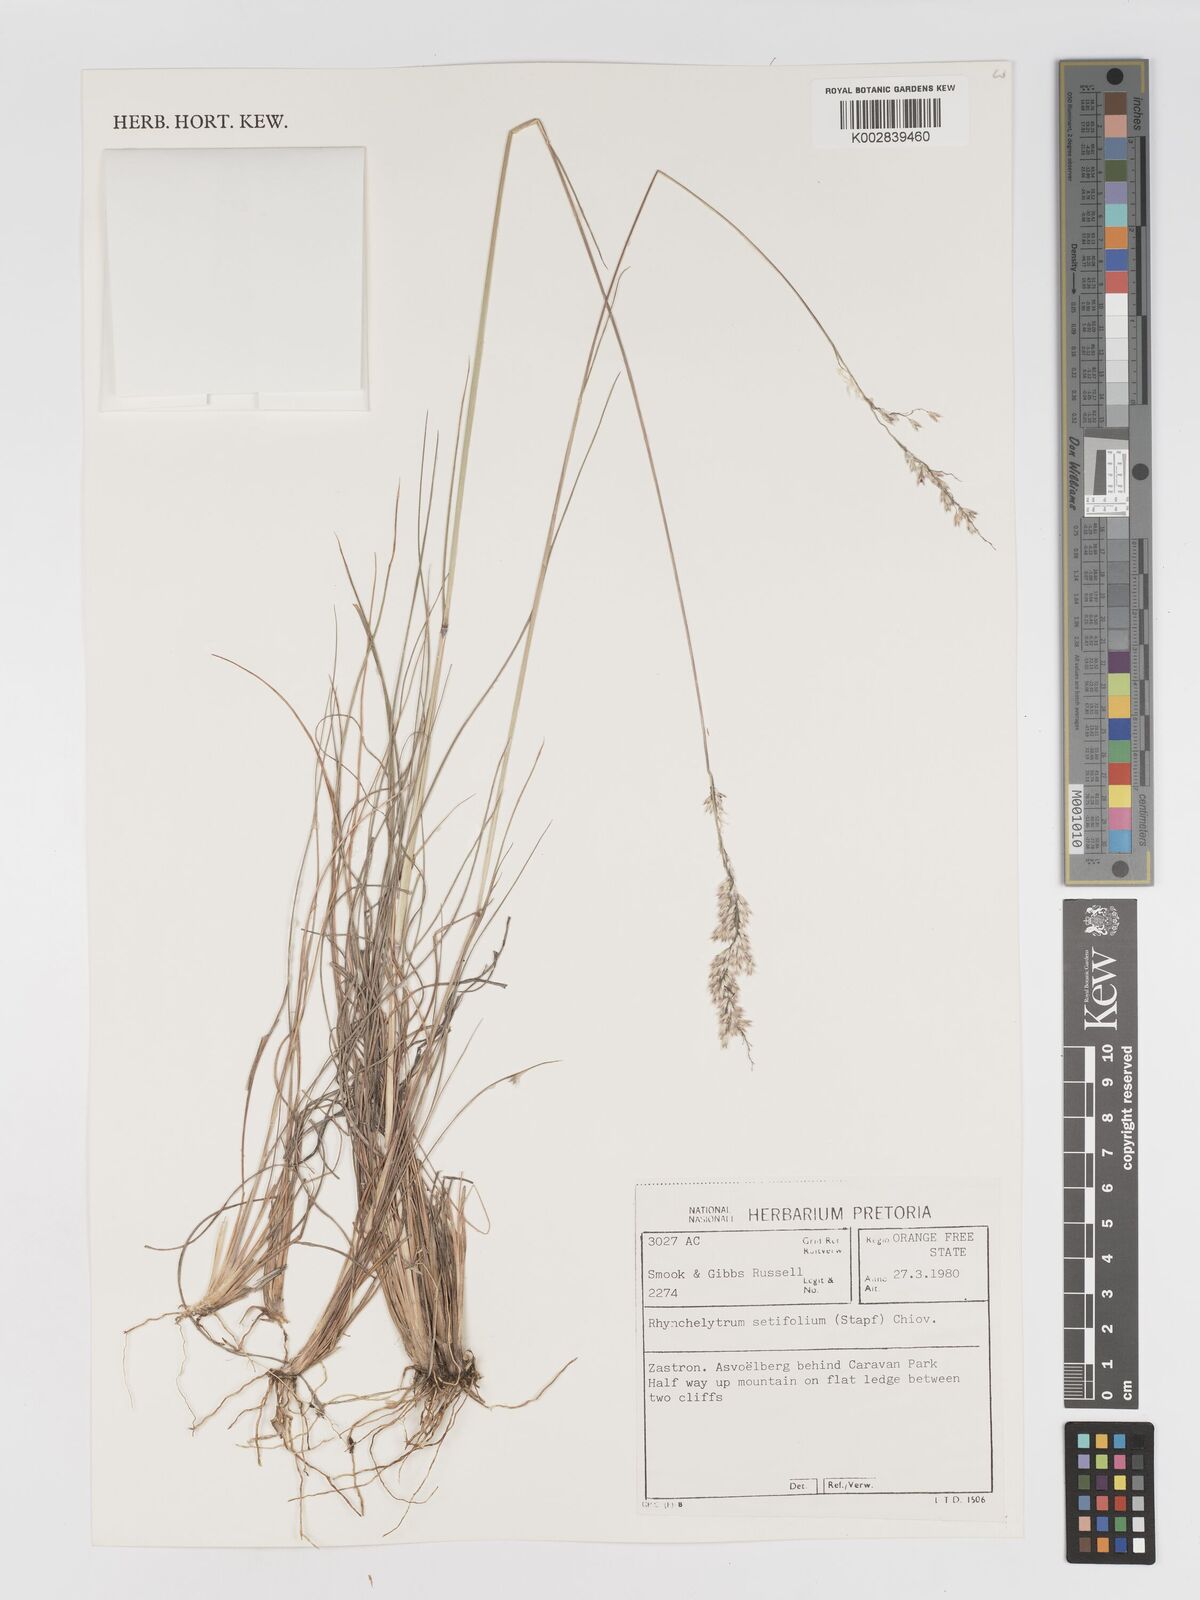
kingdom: Plantae
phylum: Tracheophyta
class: Liliopsida
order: Poales
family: Poaceae
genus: Melinis
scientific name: Melinis nerviglumis
